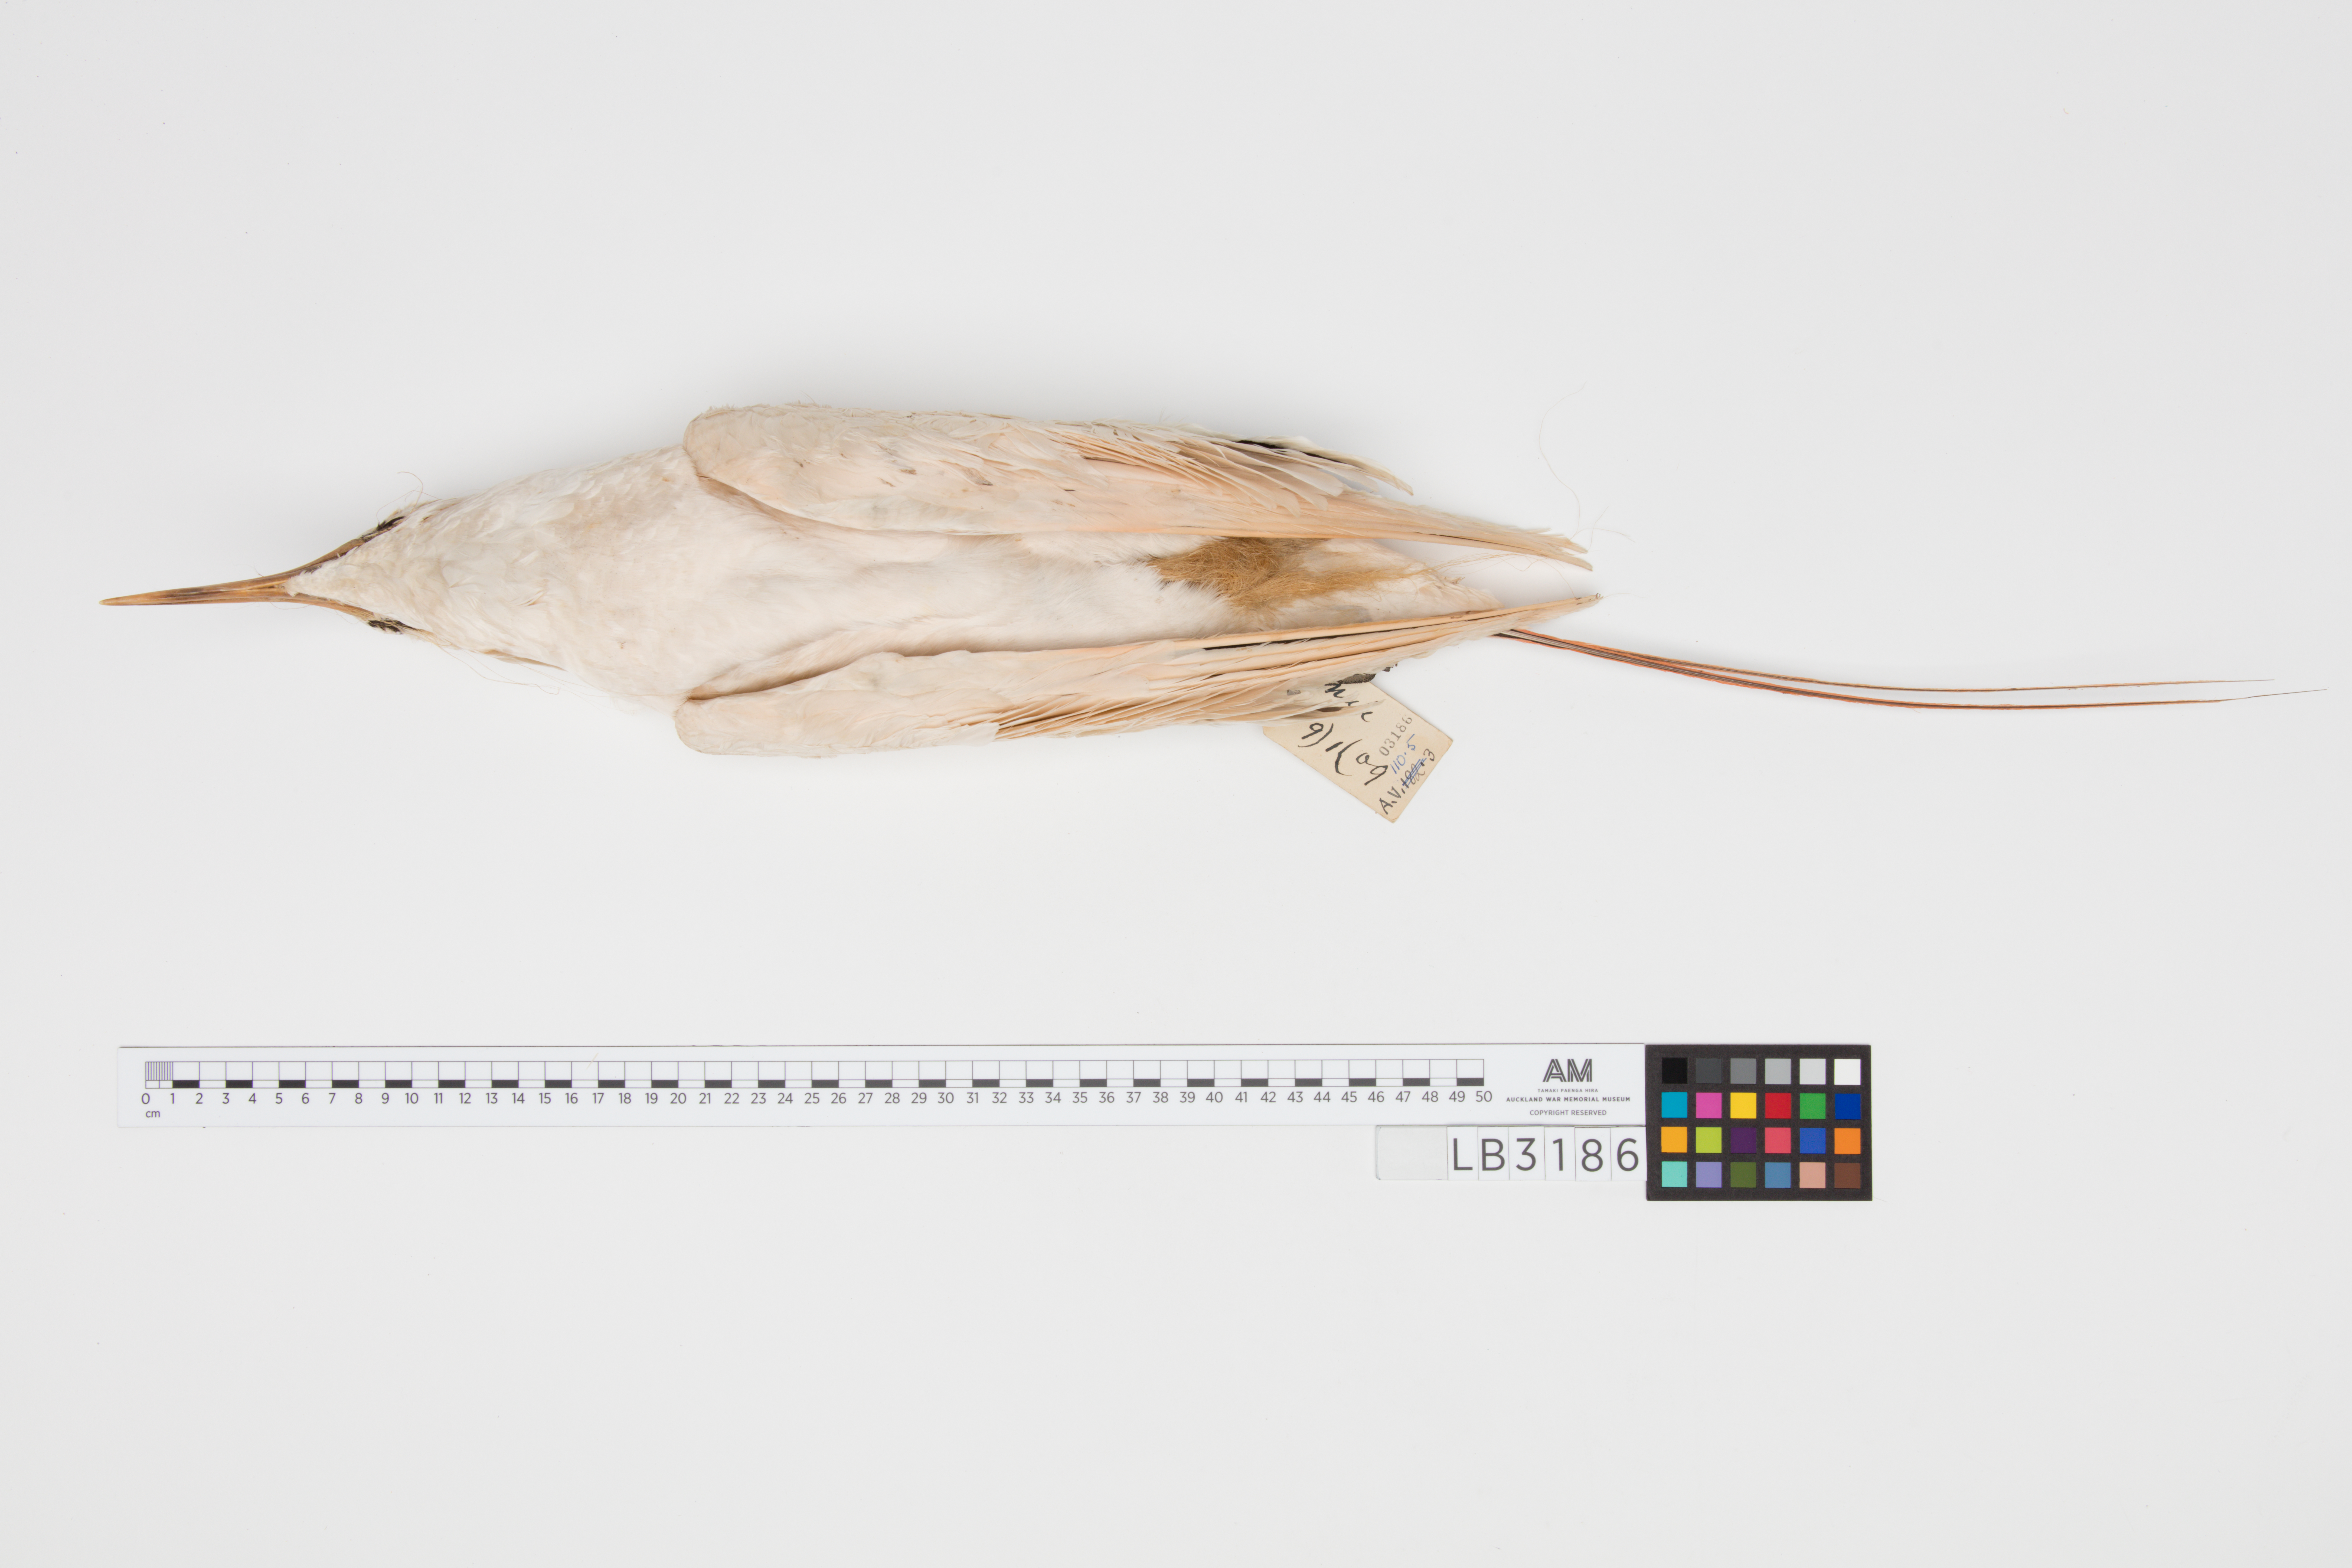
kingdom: Animalia
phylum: Chordata
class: Aves
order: Phaethontiformes
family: Phaethontidae
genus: Phaethon
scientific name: Phaethon rubricauda
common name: Red-tailed tropicbird
